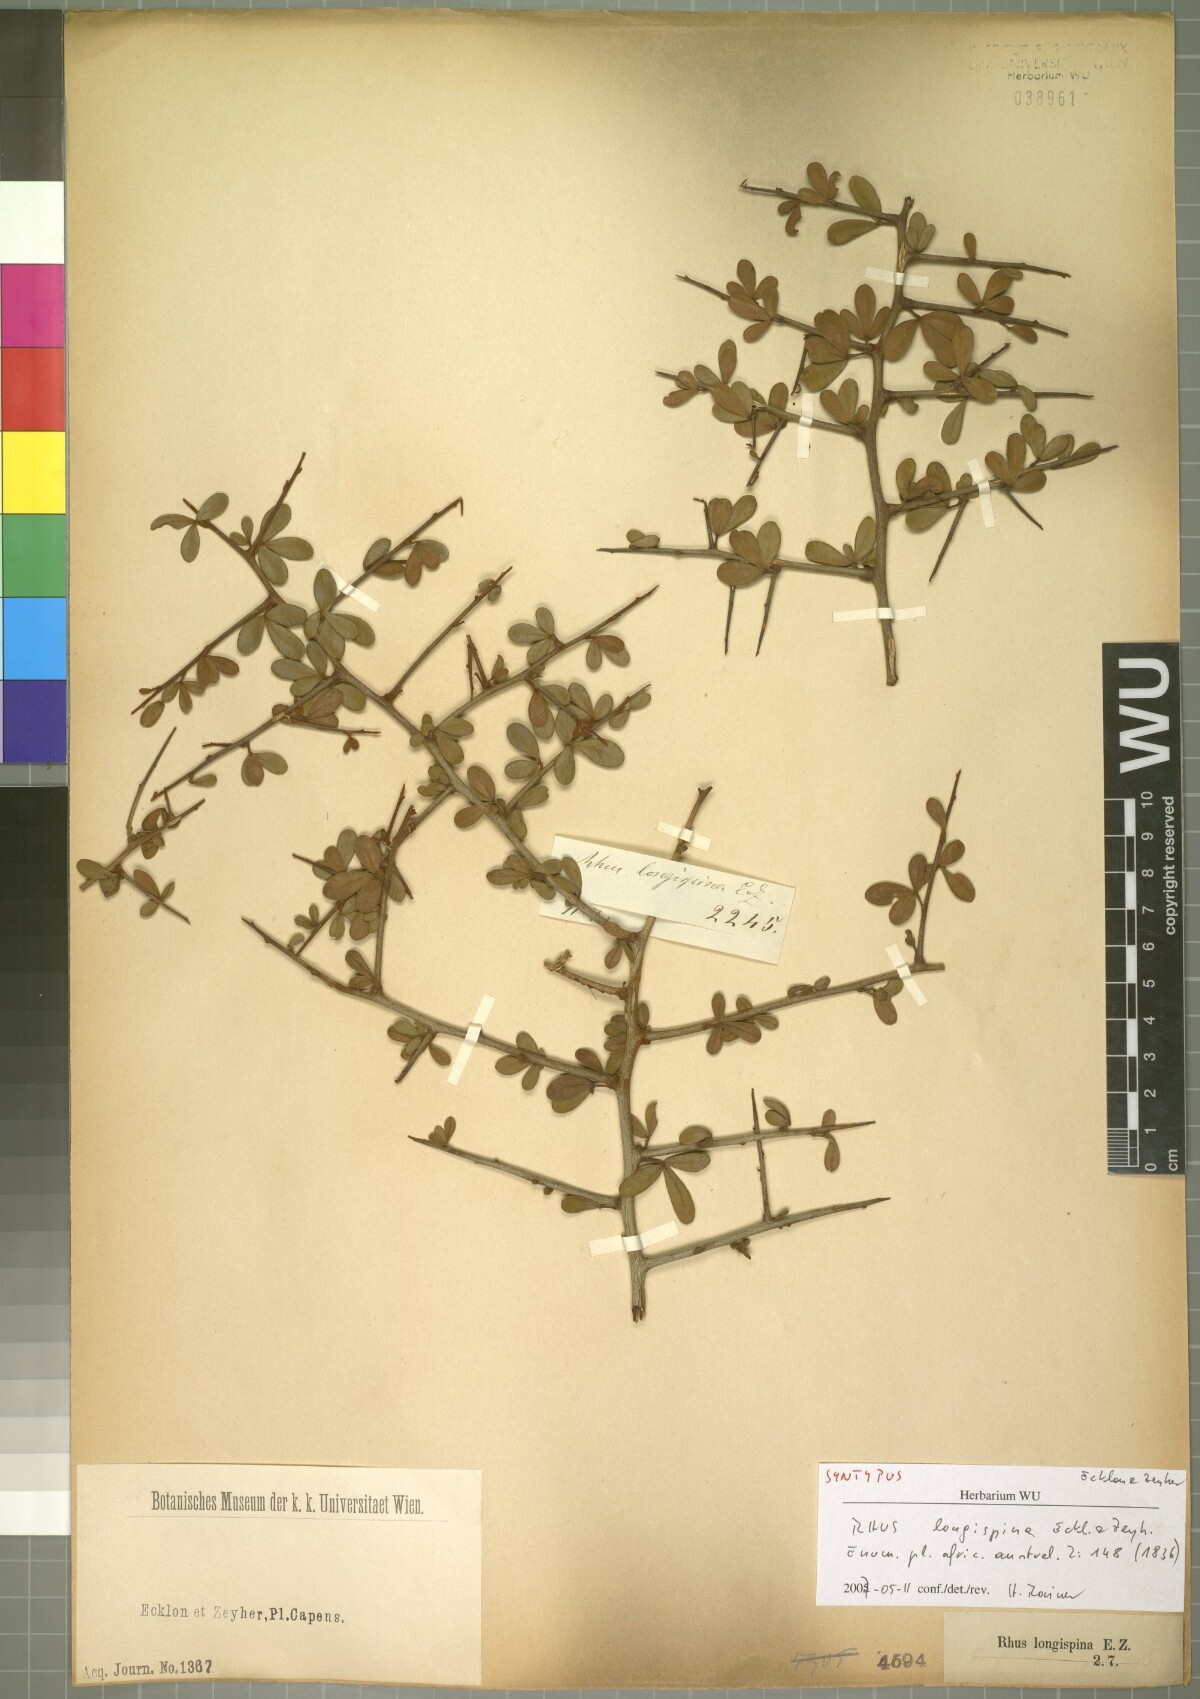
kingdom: Plantae
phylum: Tracheophyta
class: Magnoliopsida
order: Sapindales
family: Anacardiaceae
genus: Searsia
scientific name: Searsia longispina
